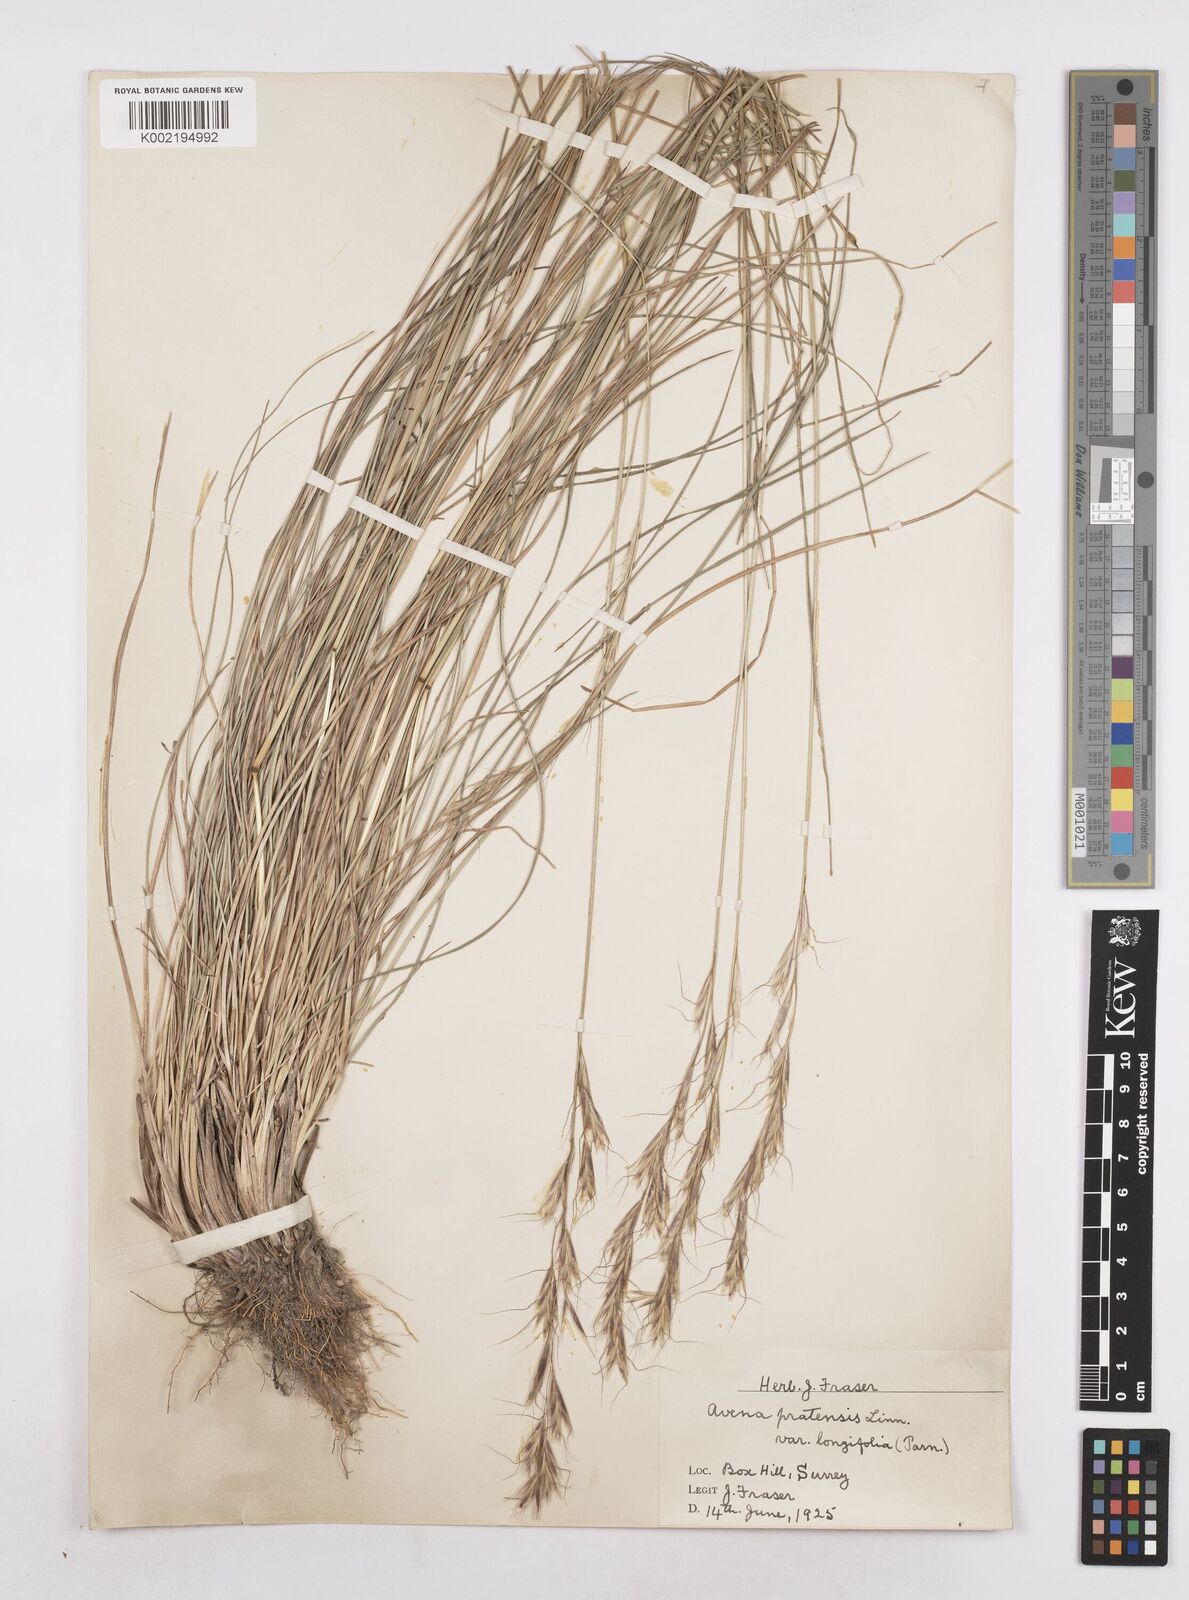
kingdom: Plantae
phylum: Tracheophyta
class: Liliopsida
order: Poales
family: Poaceae
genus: Helictochloa
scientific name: Helictochloa pratensis
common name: Meadow oat grass
